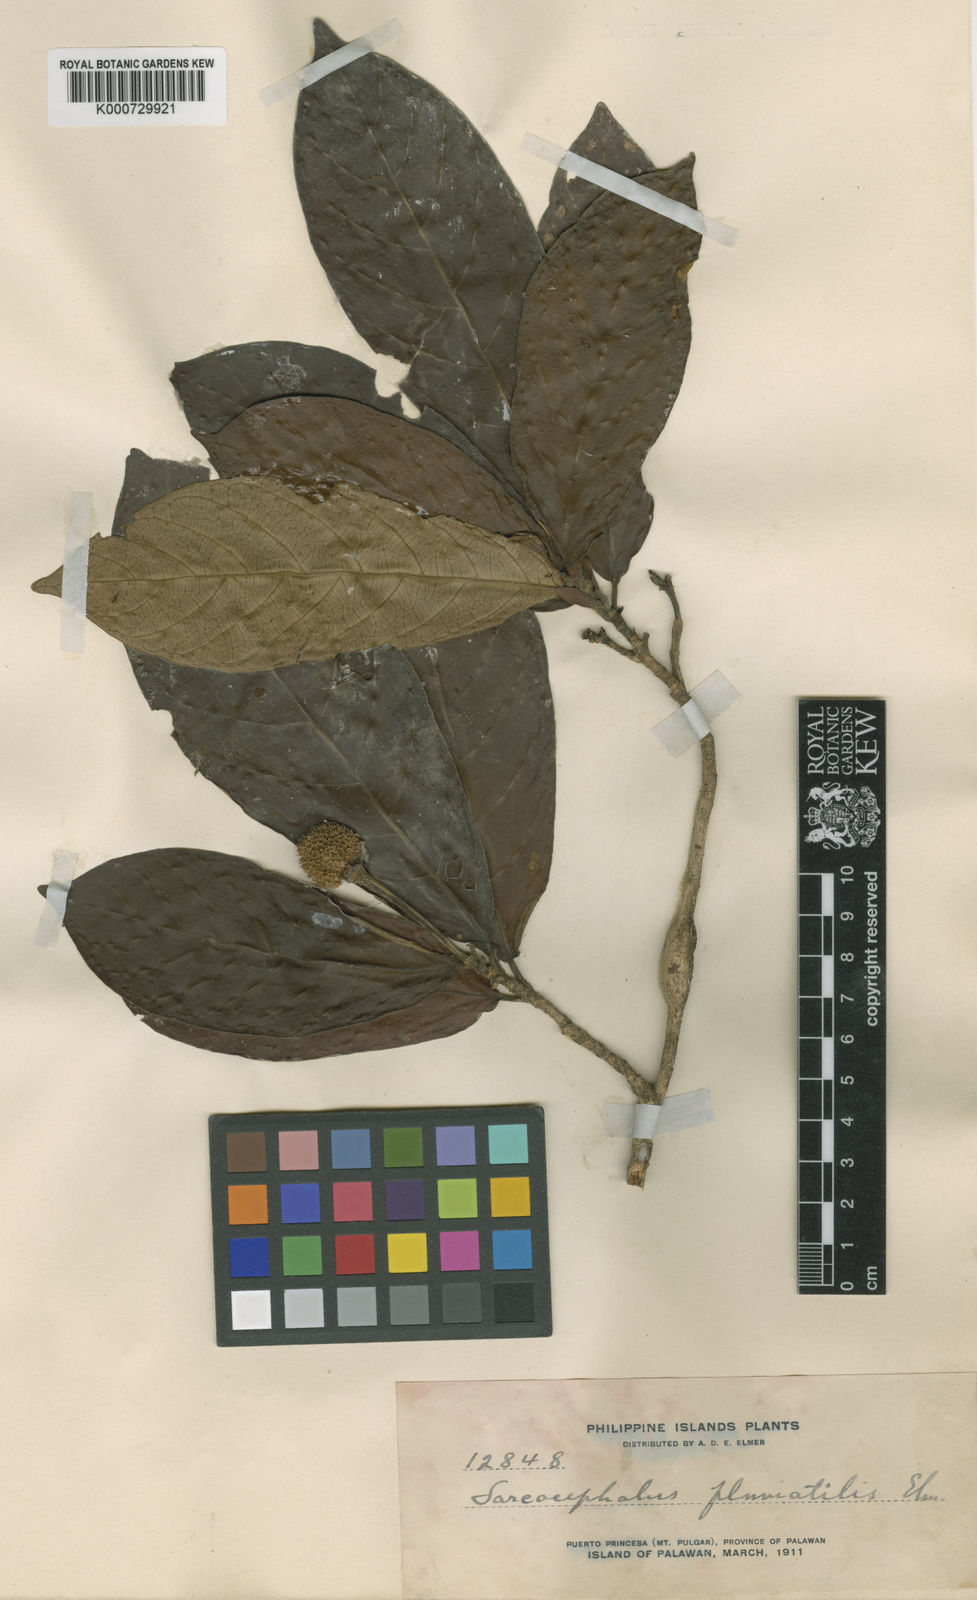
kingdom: Plantae
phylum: Tracheophyta
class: Magnoliopsida
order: Gentianales
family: Rubiaceae
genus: Myrmeconauclea
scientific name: Myrmeconauclea strigosa
